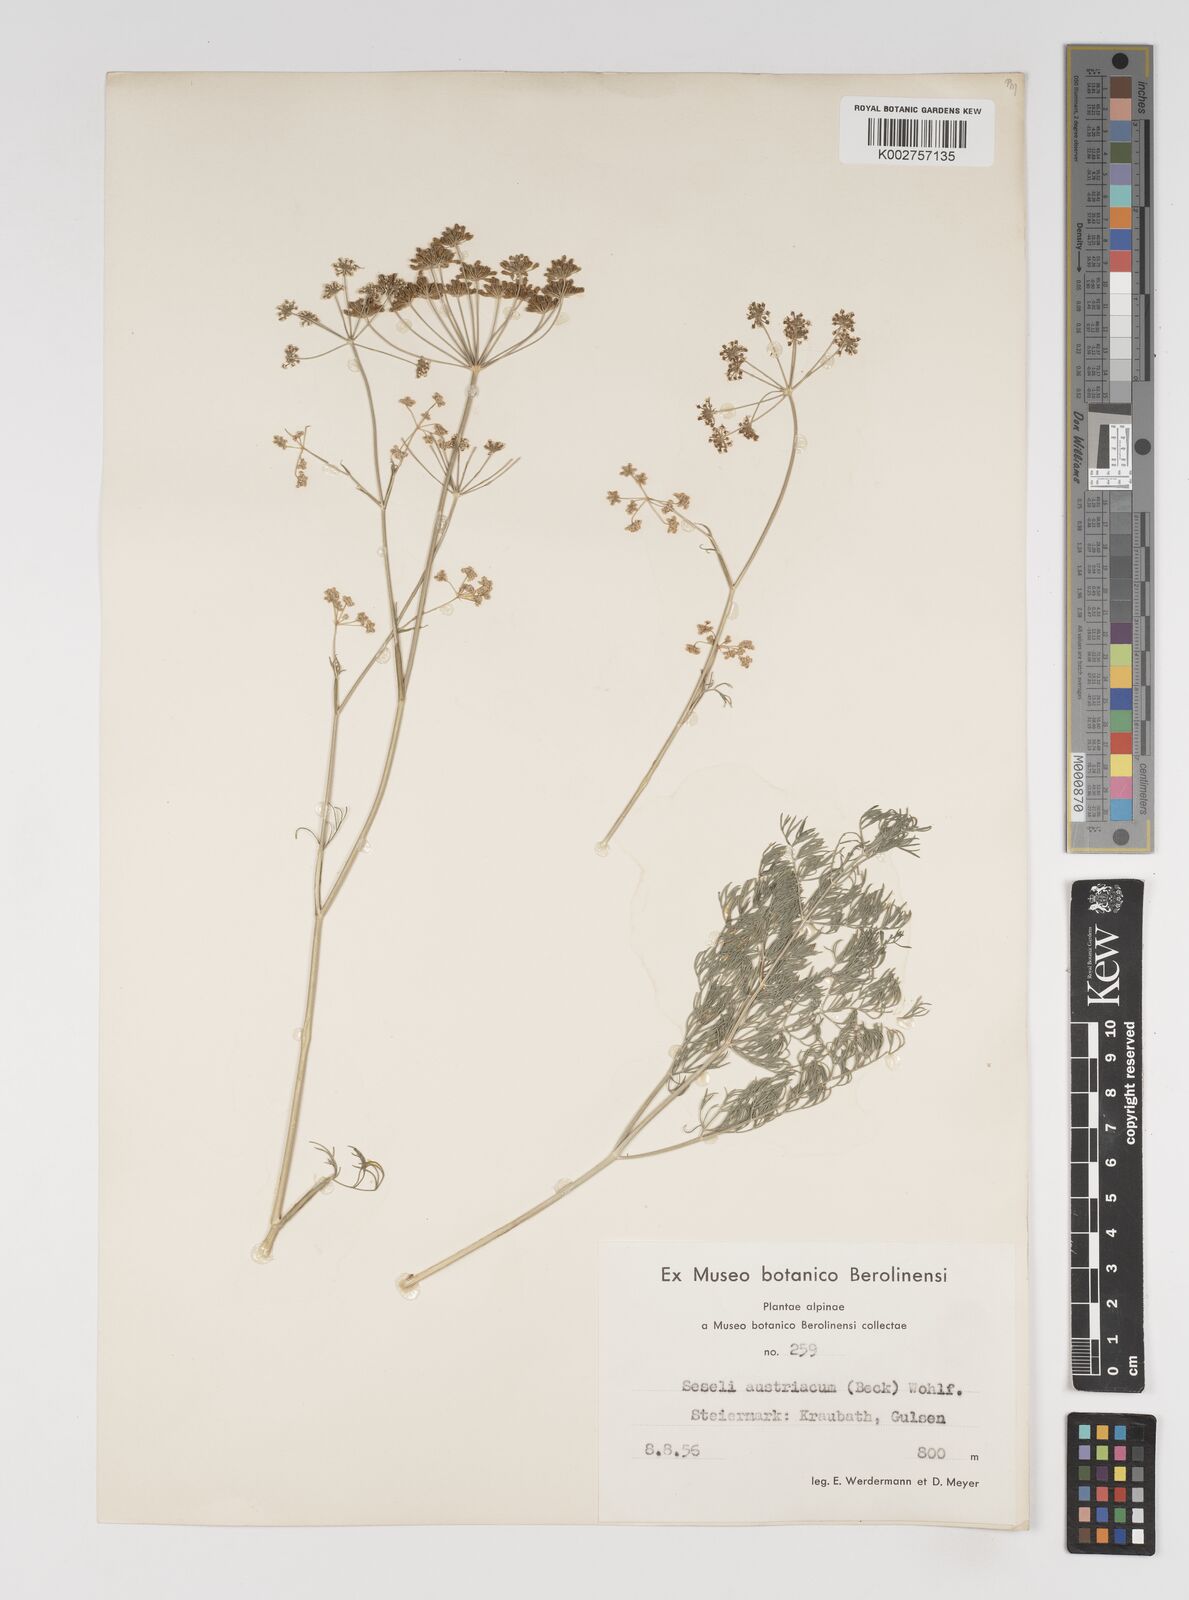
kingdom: Plantae
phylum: Tracheophyta
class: Magnoliopsida
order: Apiales
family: Apiaceae
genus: Seseli
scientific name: Seseli austriacum
